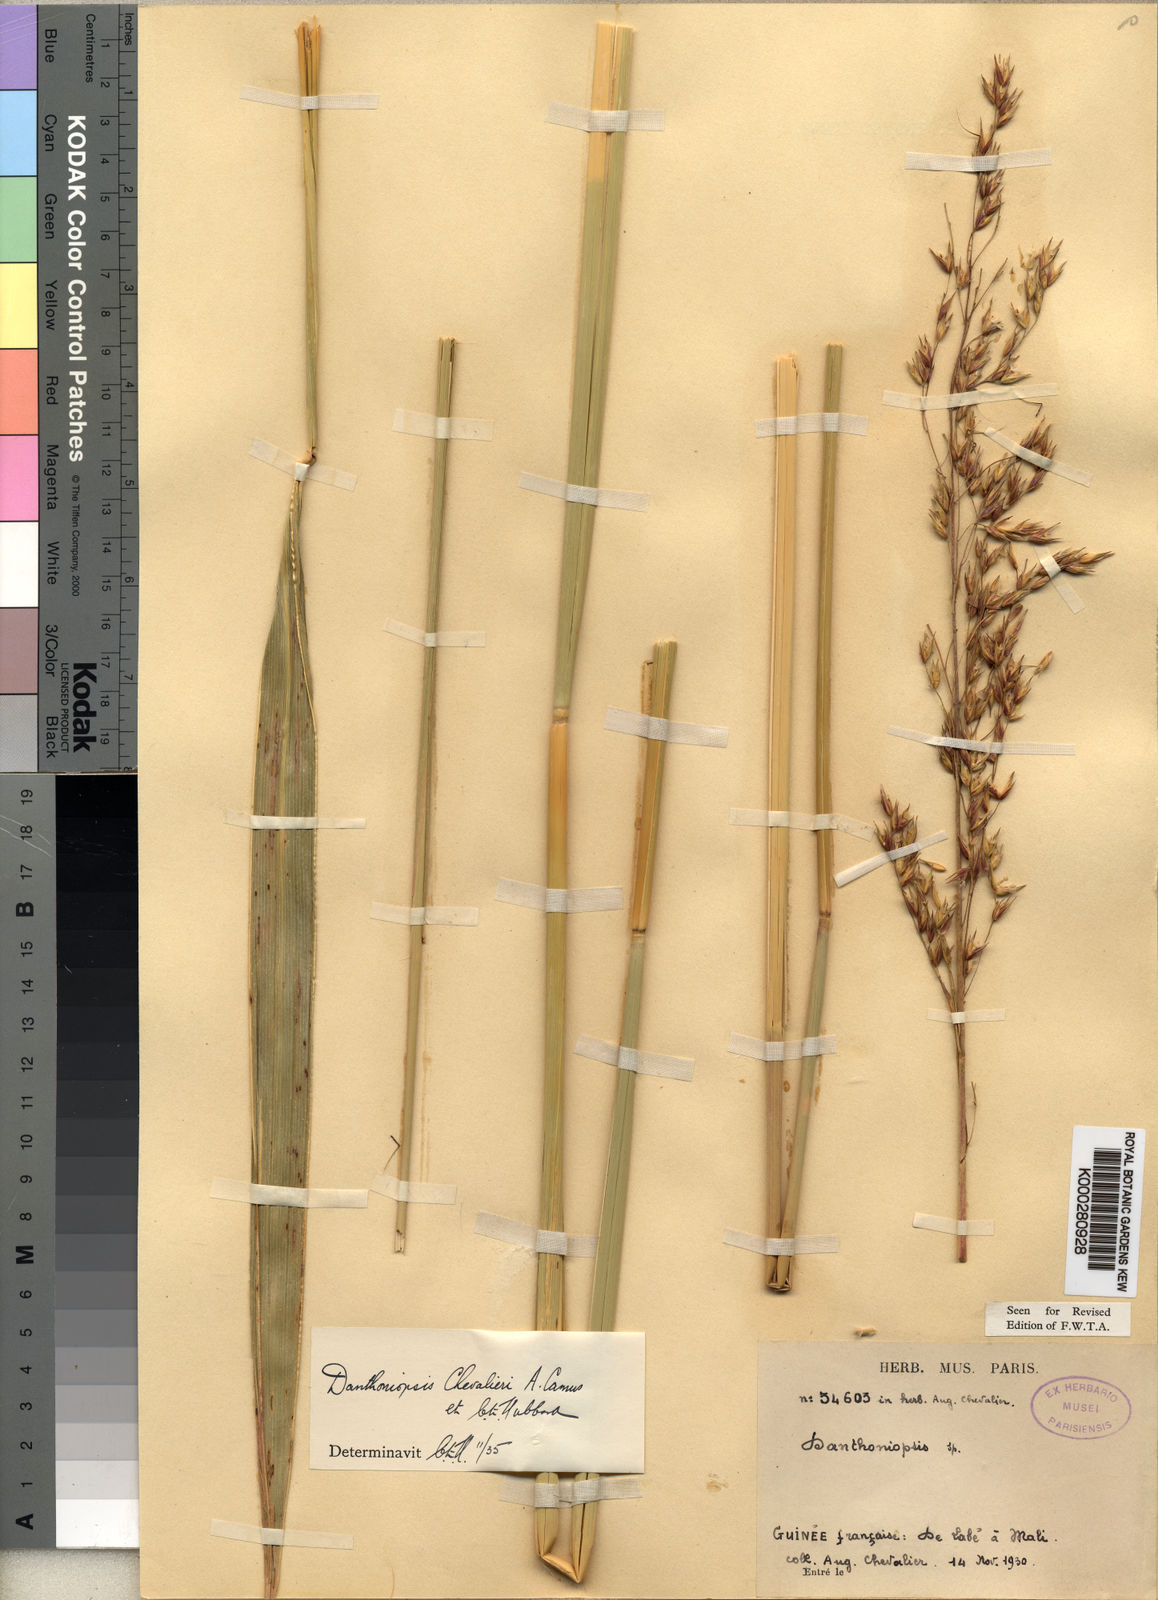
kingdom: Plantae
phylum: Tracheophyta
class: Liliopsida
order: Poales
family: Poaceae
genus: Danthoniopsis
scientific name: Danthoniopsis chevalieri
